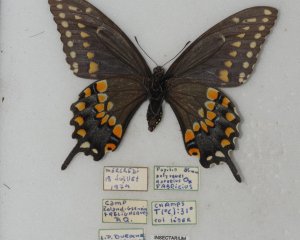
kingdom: Animalia
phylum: Arthropoda
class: Insecta
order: Lepidoptera
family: Papilionidae
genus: Papilio
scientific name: Papilio polyxenes
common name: Black Swallowtail
